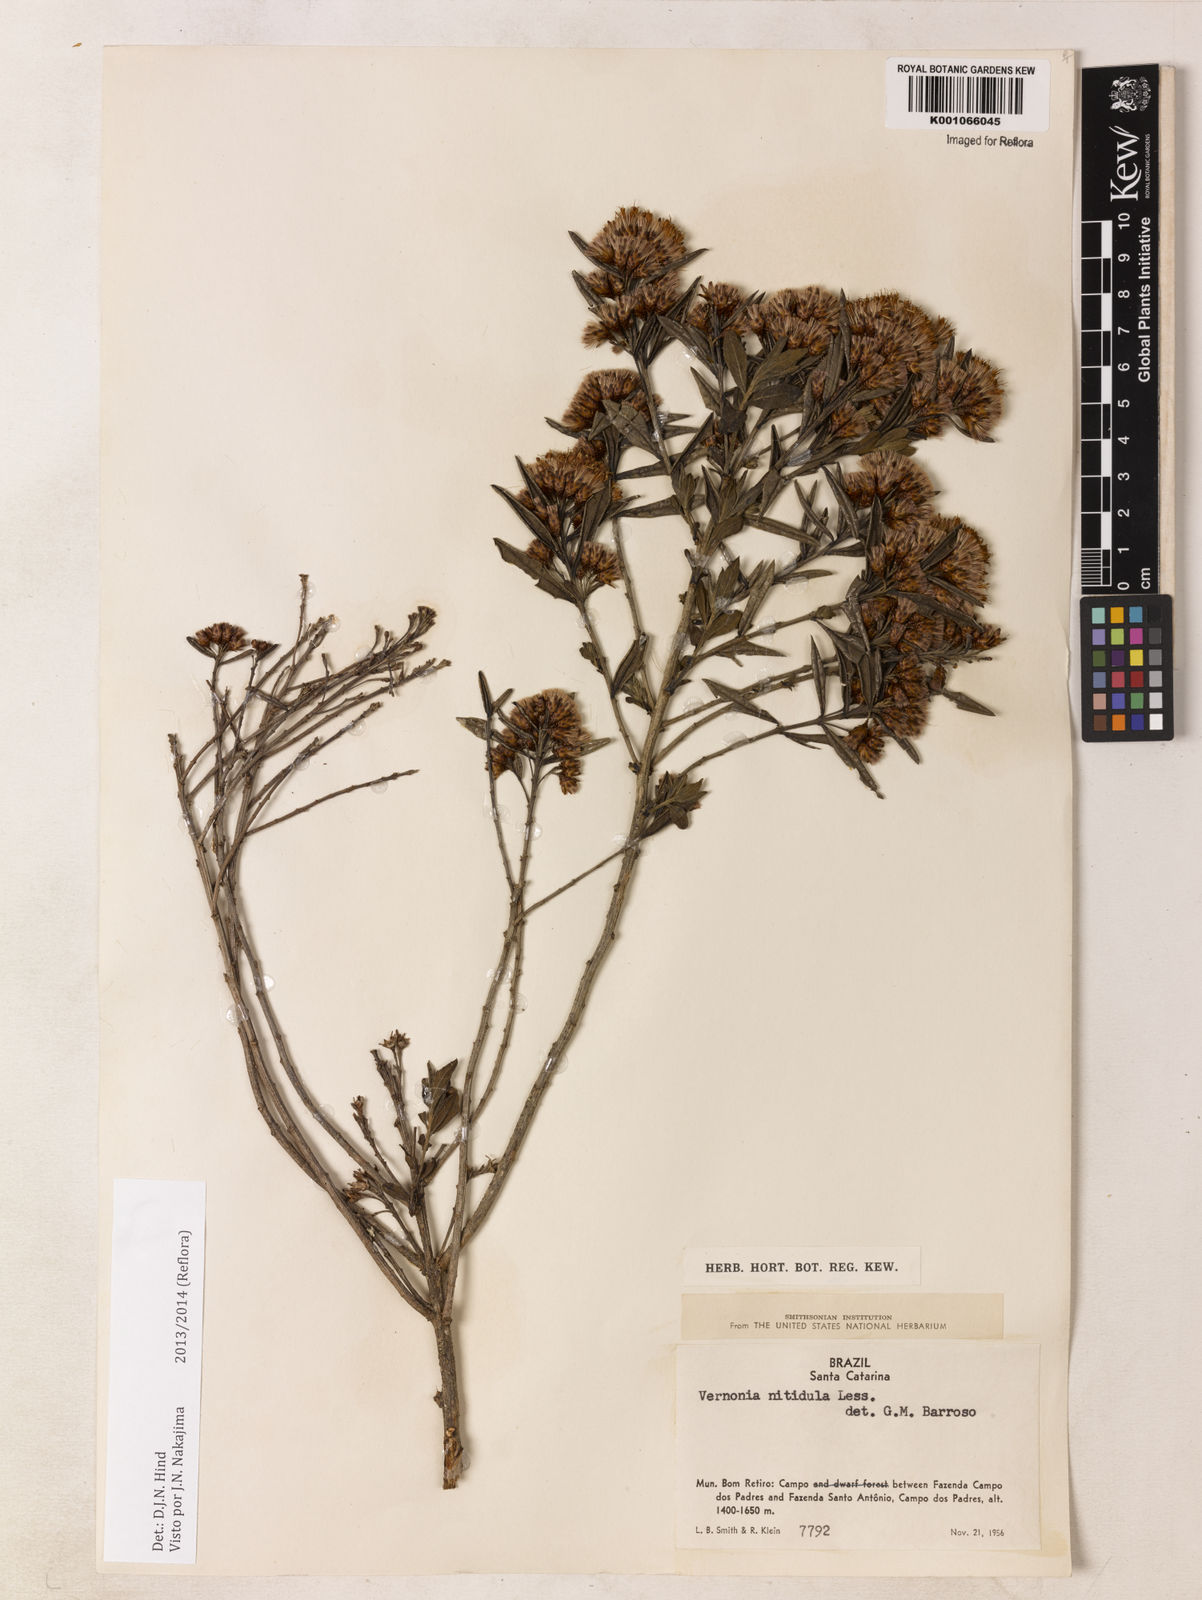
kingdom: Plantae
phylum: Tracheophyta
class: Magnoliopsida
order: Asterales
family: Asteraceae
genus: Vernonanthura
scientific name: Vernonanthura montevidensis
